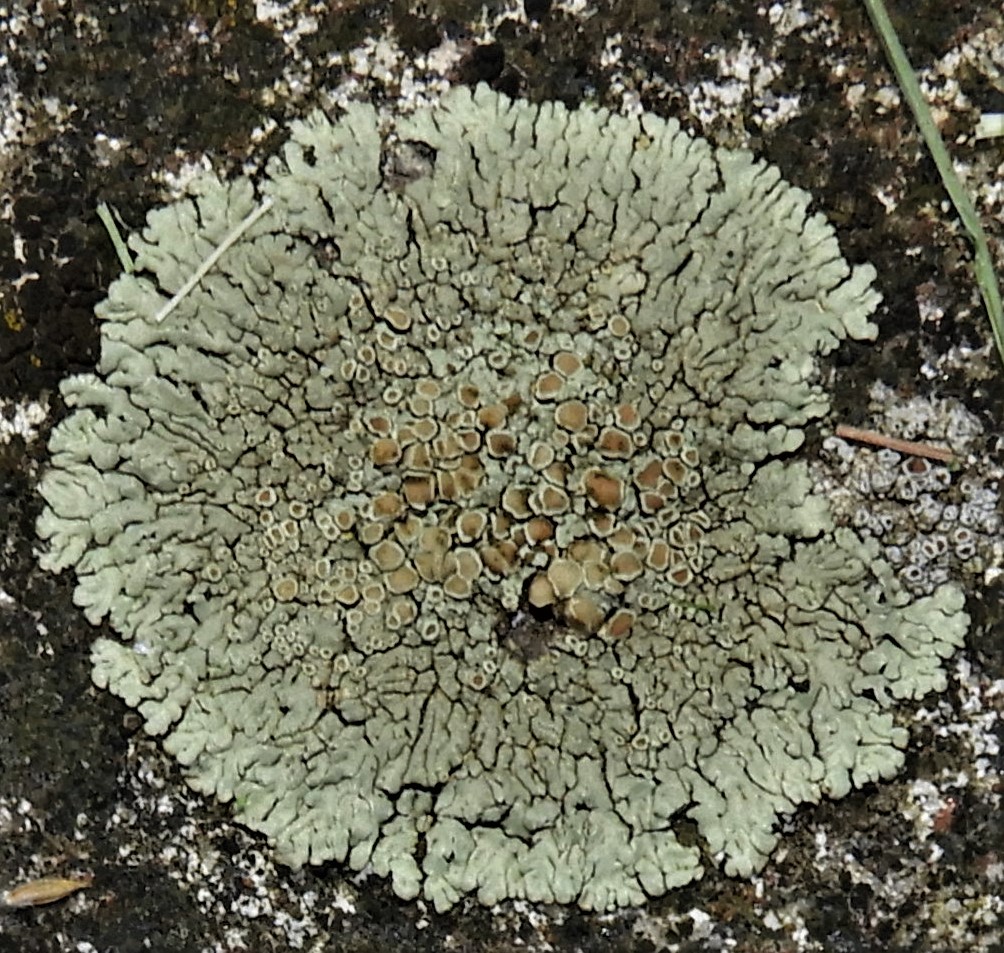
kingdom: Fungi
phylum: Ascomycota
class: Lecanoromycetes
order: Lecanorales
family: Lecanoraceae
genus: Protoparmeliopsis
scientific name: Protoparmeliopsis muralis
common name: randfliget kantskivelav
